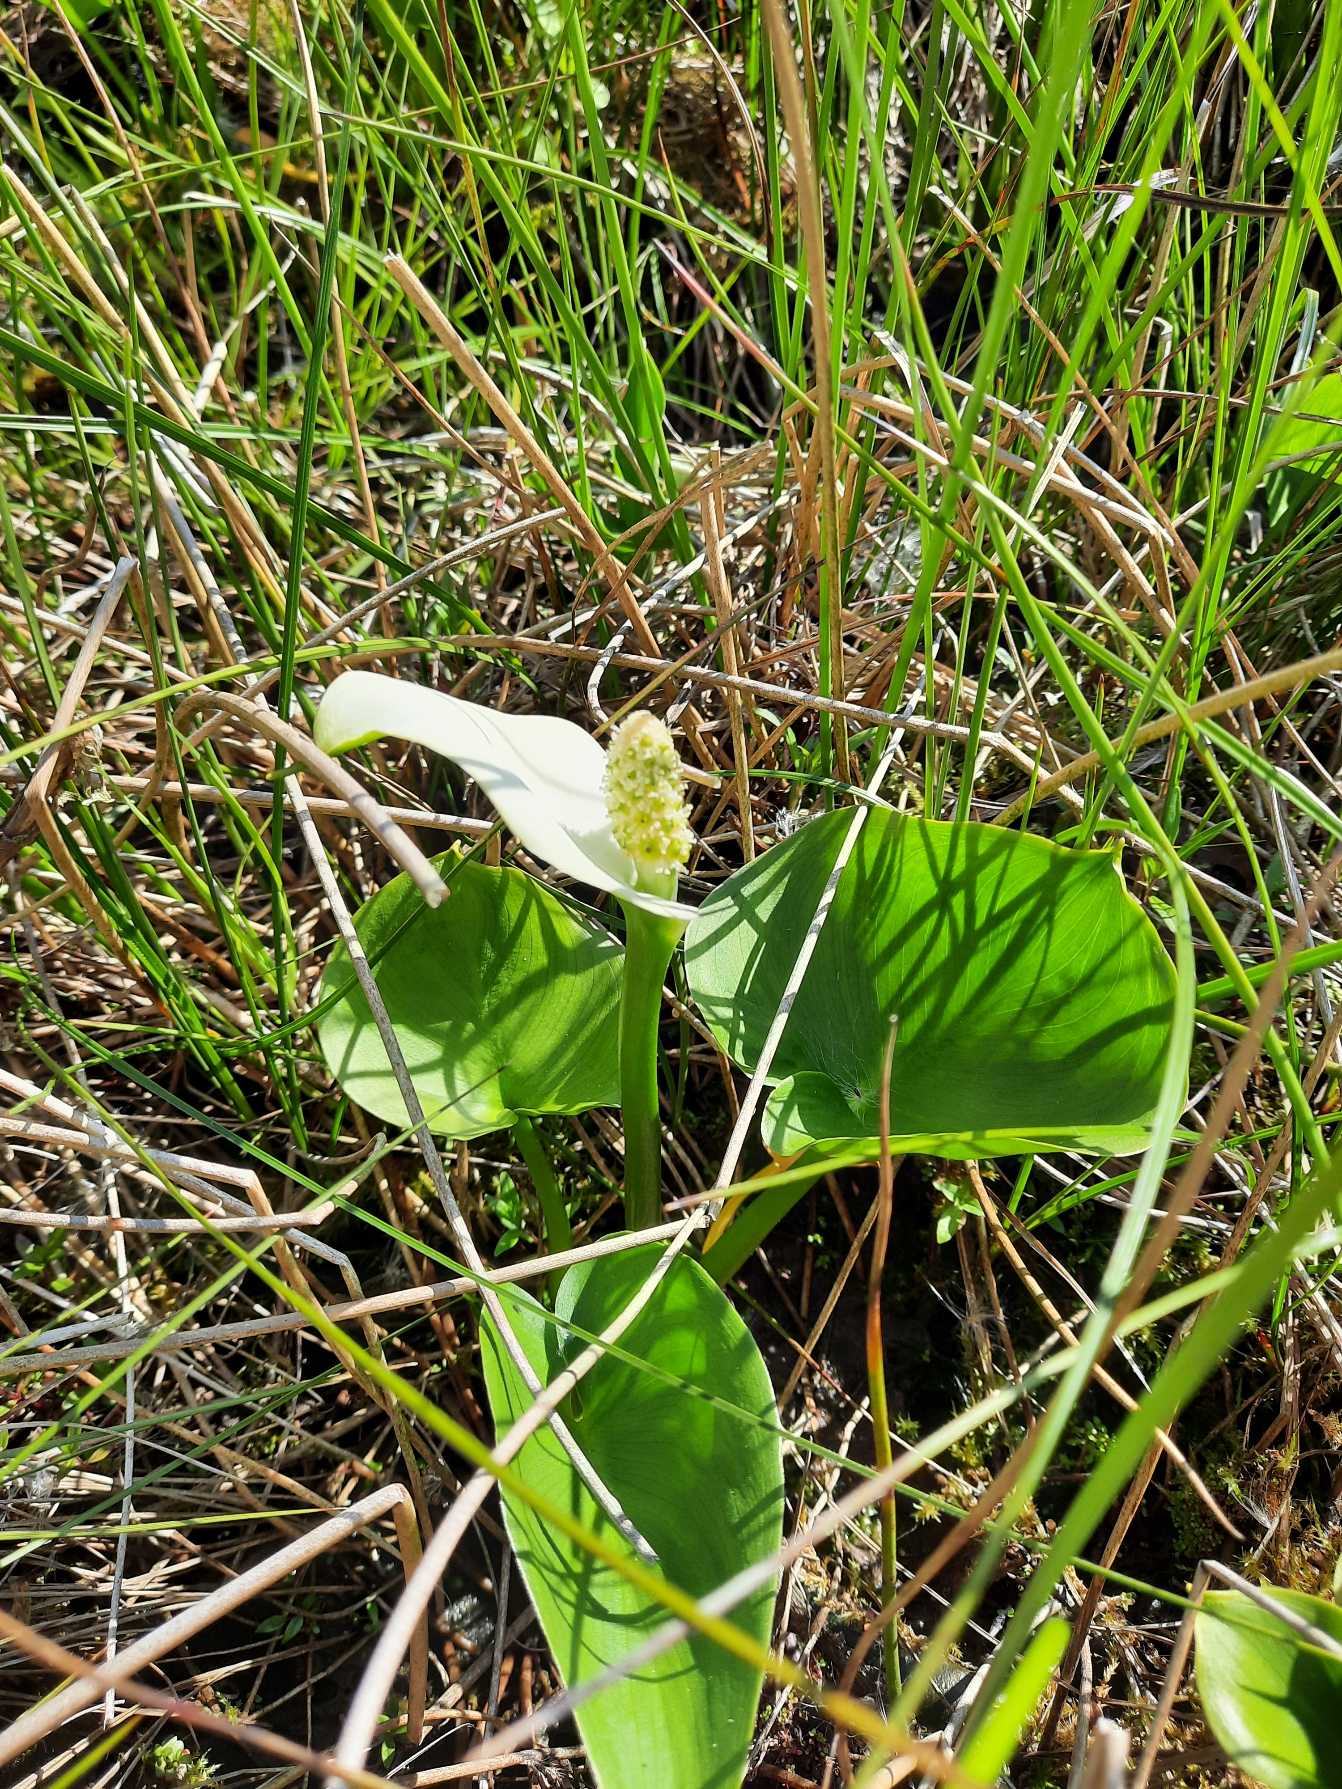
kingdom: Plantae
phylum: Tracheophyta
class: Liliopsida
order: Alismatales
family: Araceae
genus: Calla
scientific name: Calla palustris
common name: Kærmysse
